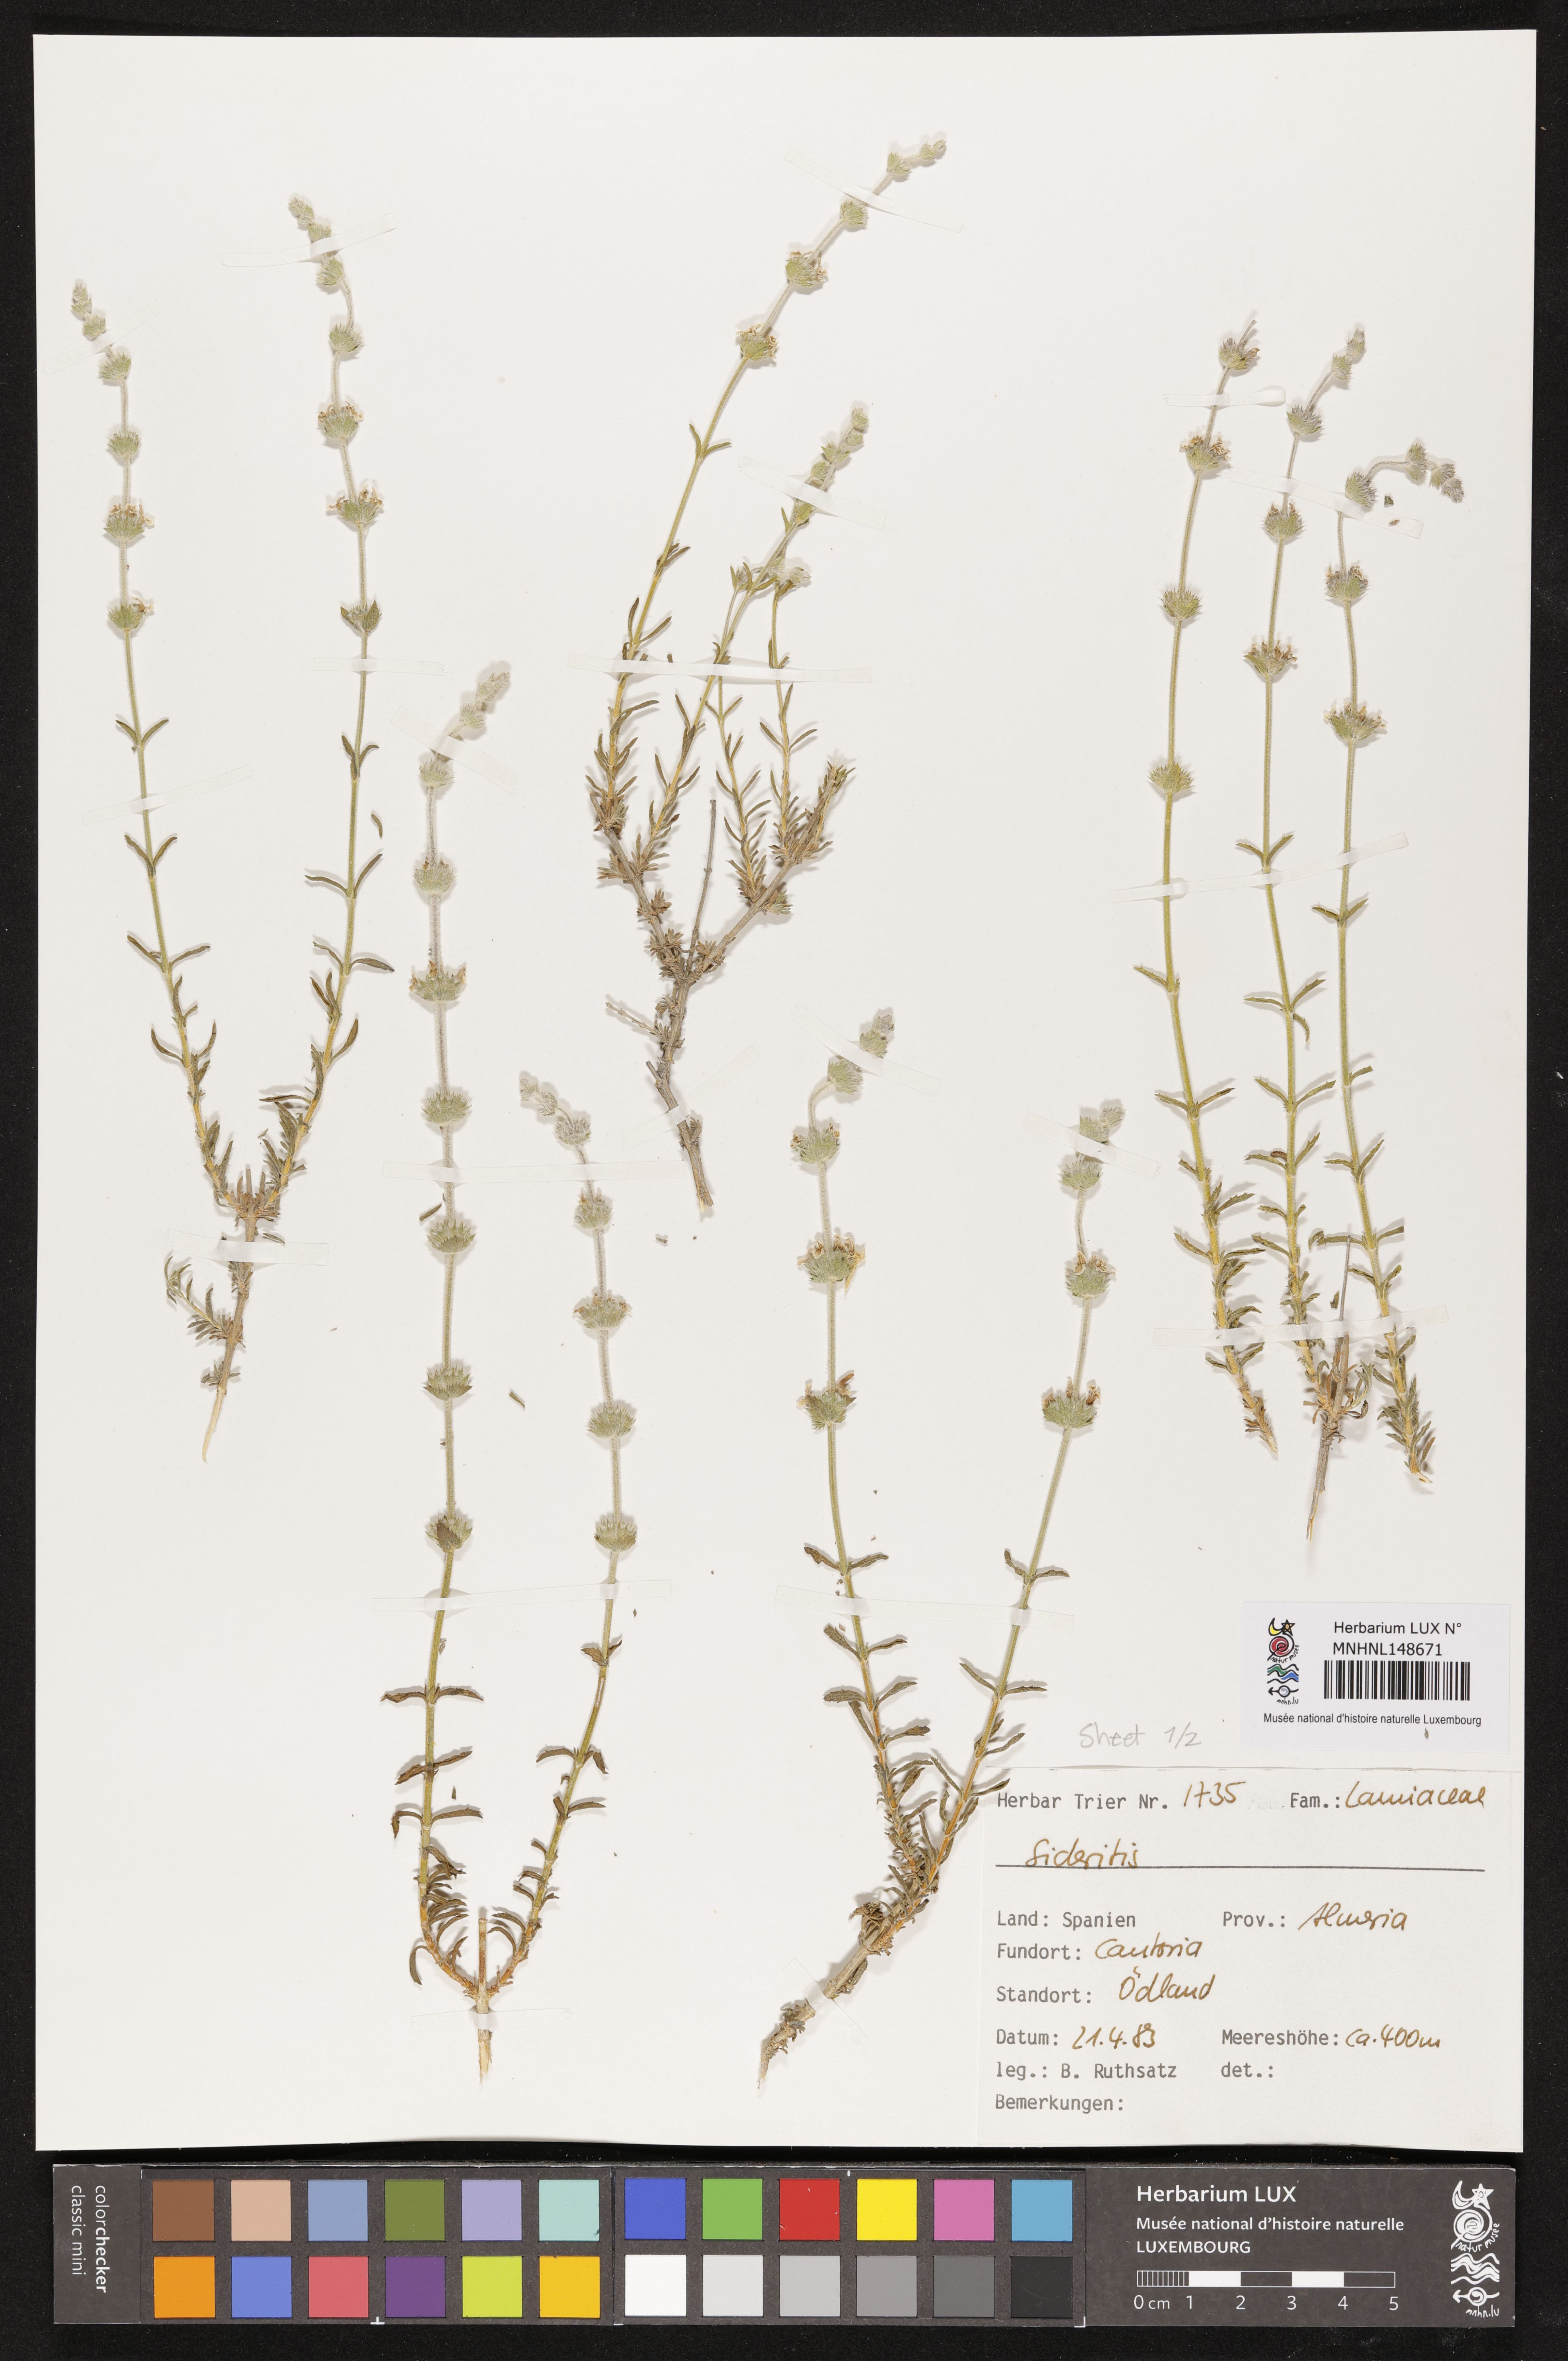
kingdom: Plantae
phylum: Tracheophyta
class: Magnoliopsida
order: Lamiales
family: Lamiaceae
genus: Sideritis
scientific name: Sideritis
